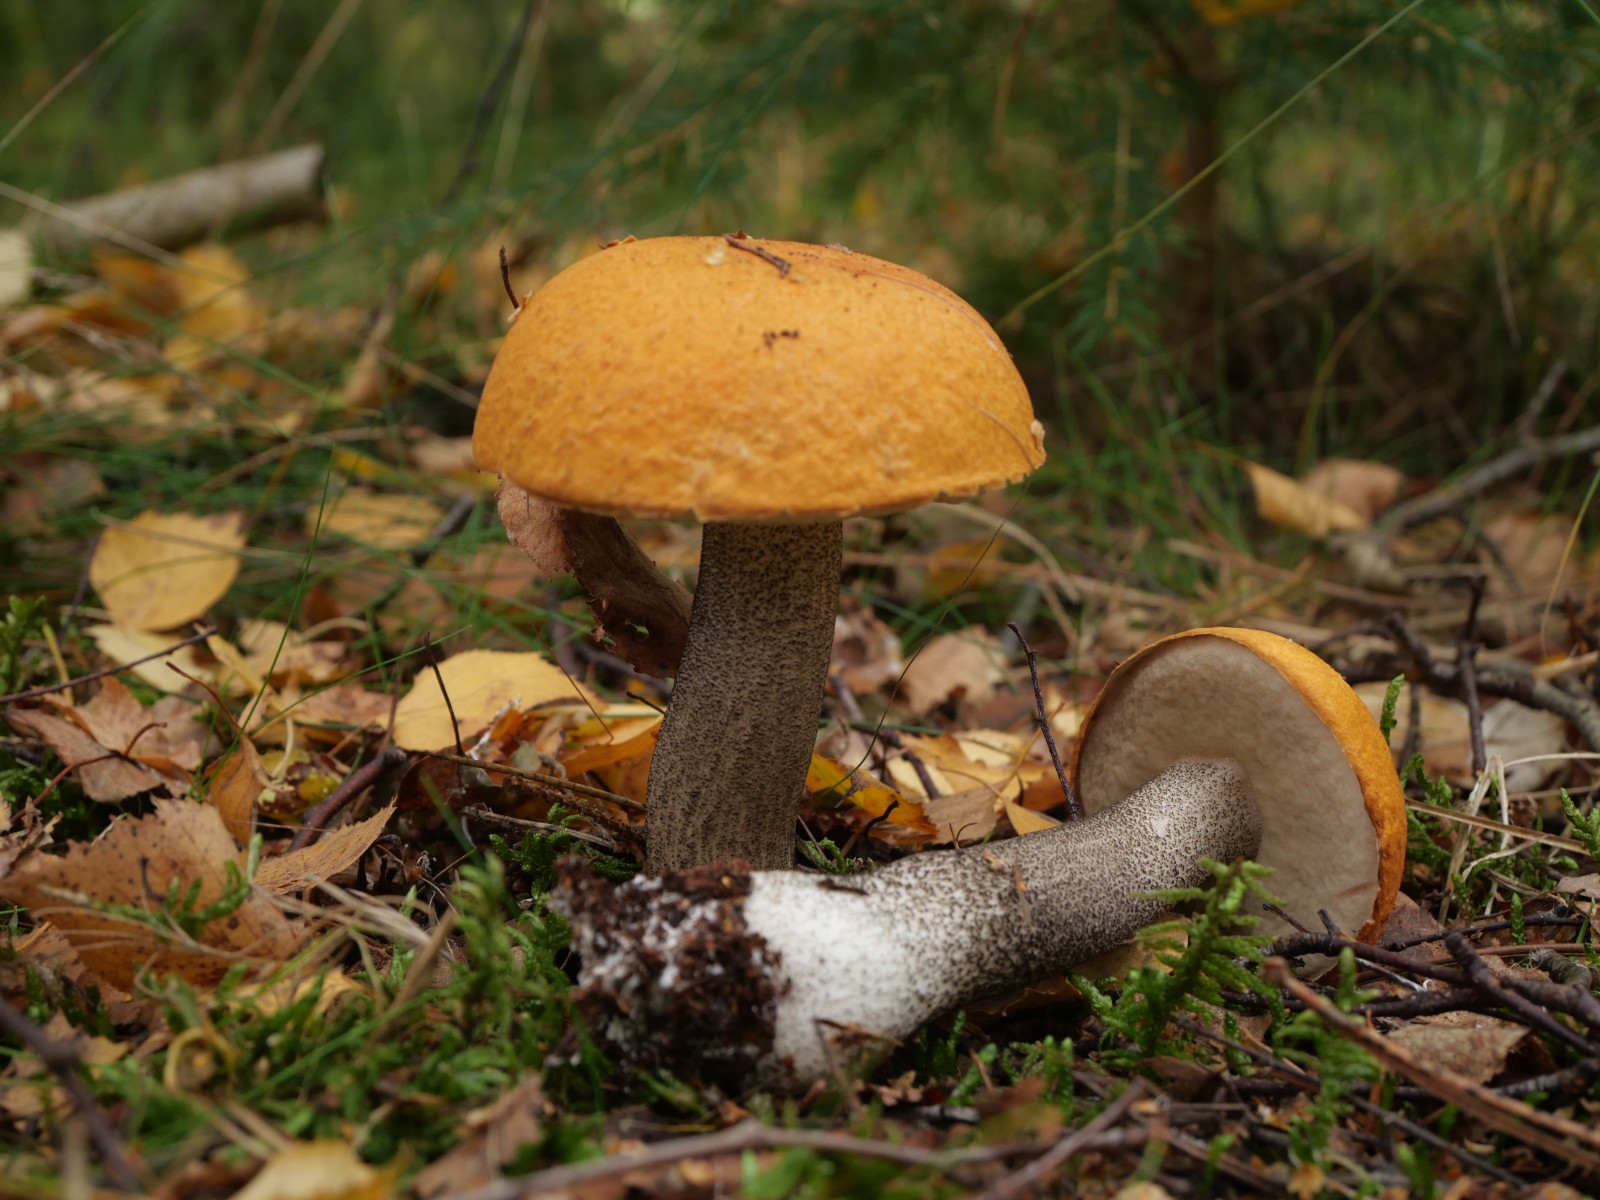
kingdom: Fungi
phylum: Basidiomycota
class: Agaricomycetes
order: Boletales
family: Boletaceae
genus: Leccinum
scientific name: Leccinum versipelle
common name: orange skælrørhat
